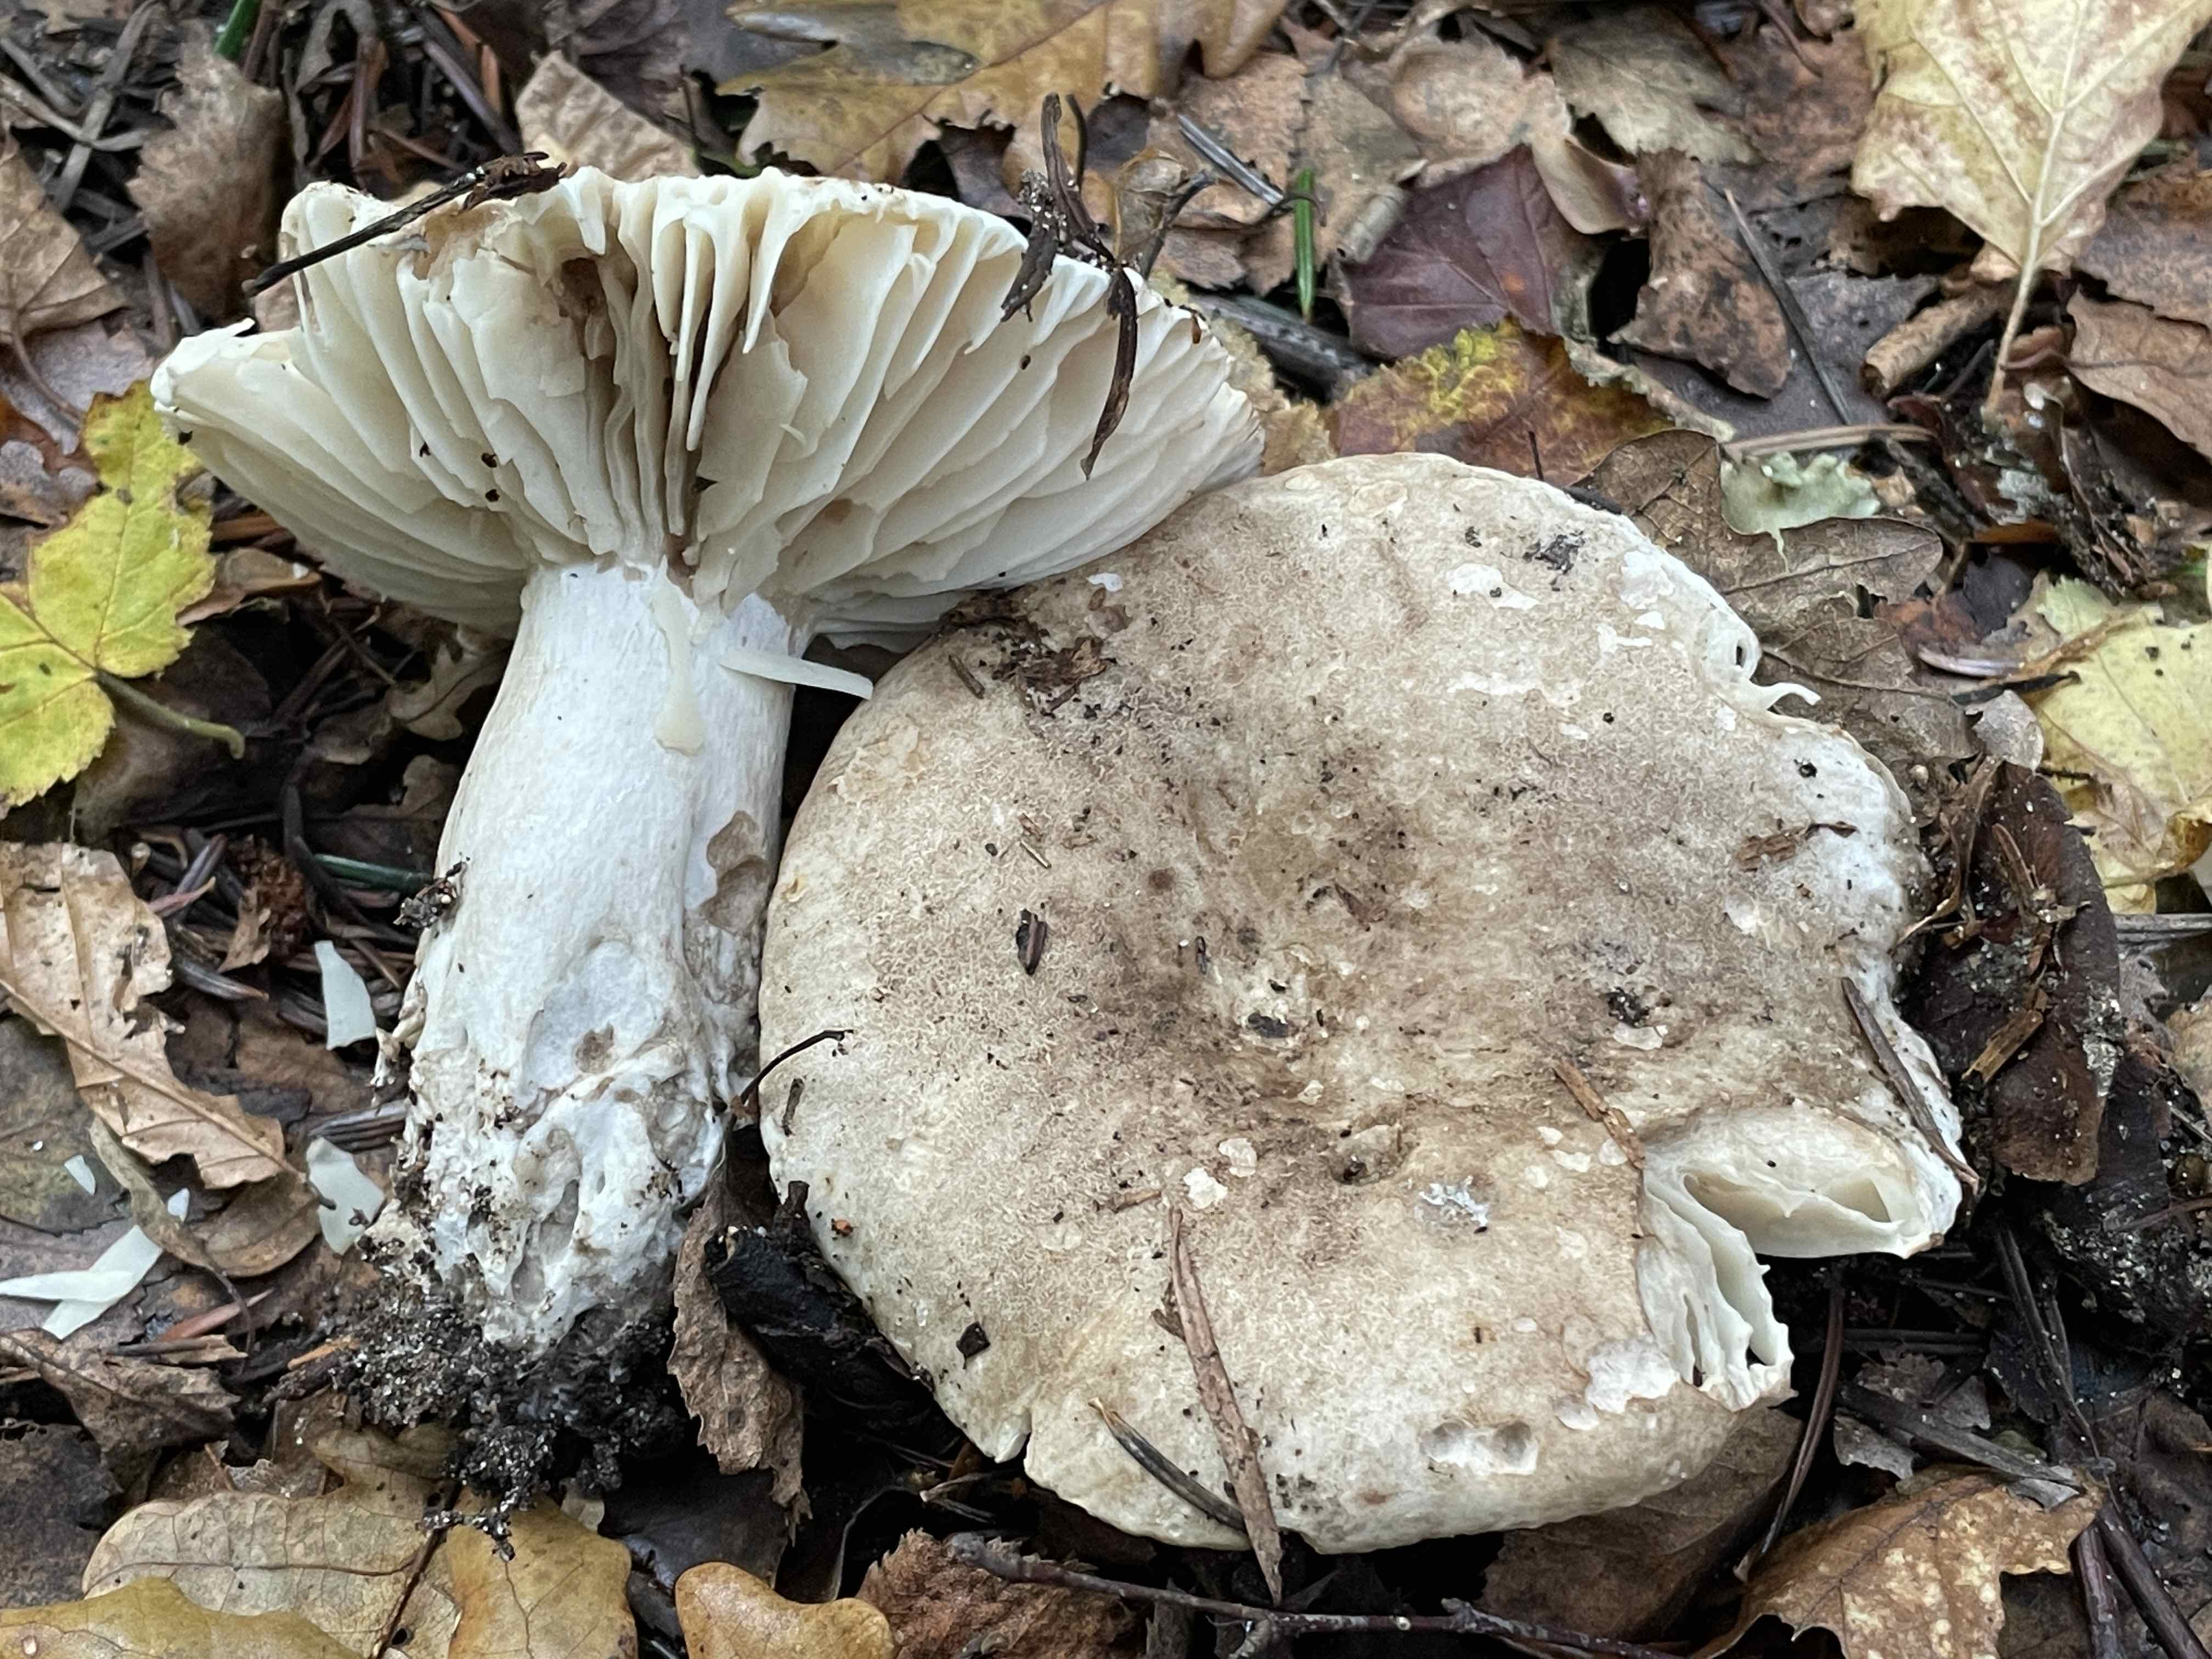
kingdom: Fungi
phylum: Basidiomycota
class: Agaricomycetes
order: Russulales
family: Russulaceae
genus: Russula
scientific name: Russula adusta
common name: sværtende skørhat
